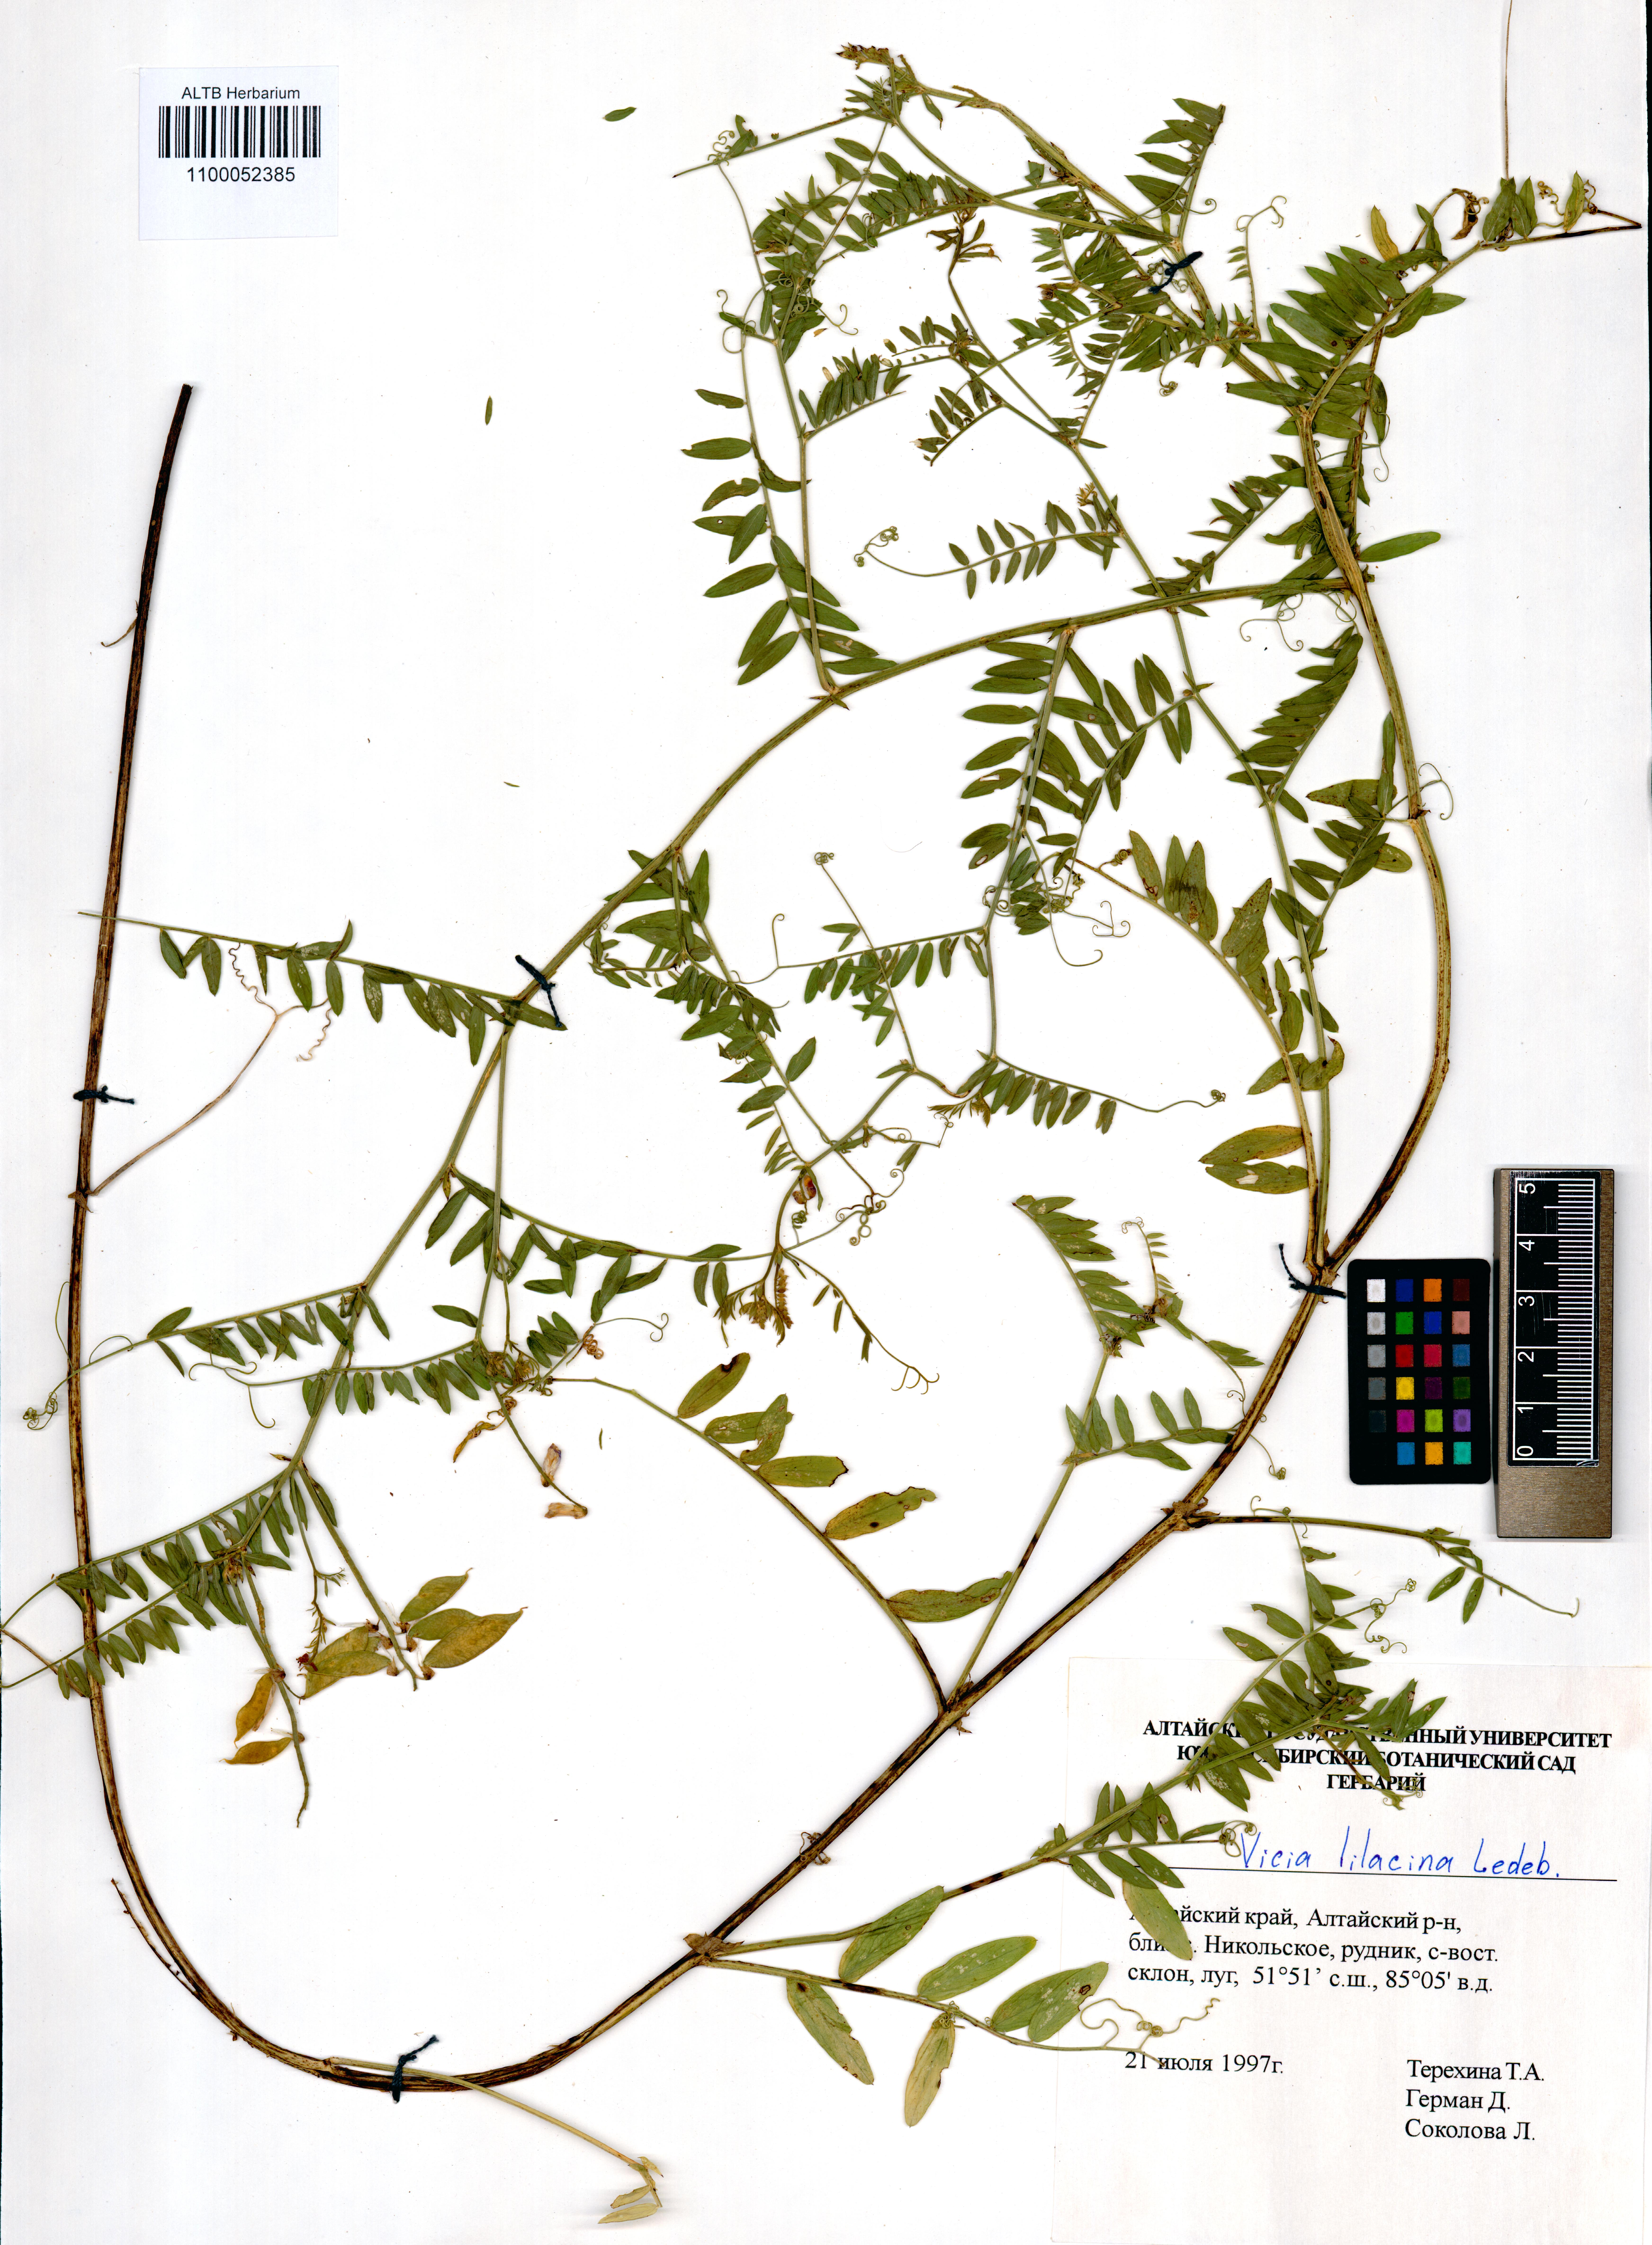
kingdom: Plantae
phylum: Tracheophyta
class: Magnoliopsida
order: Fabales
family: Fabaceae
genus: Vicia
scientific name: Vicia lilacina
